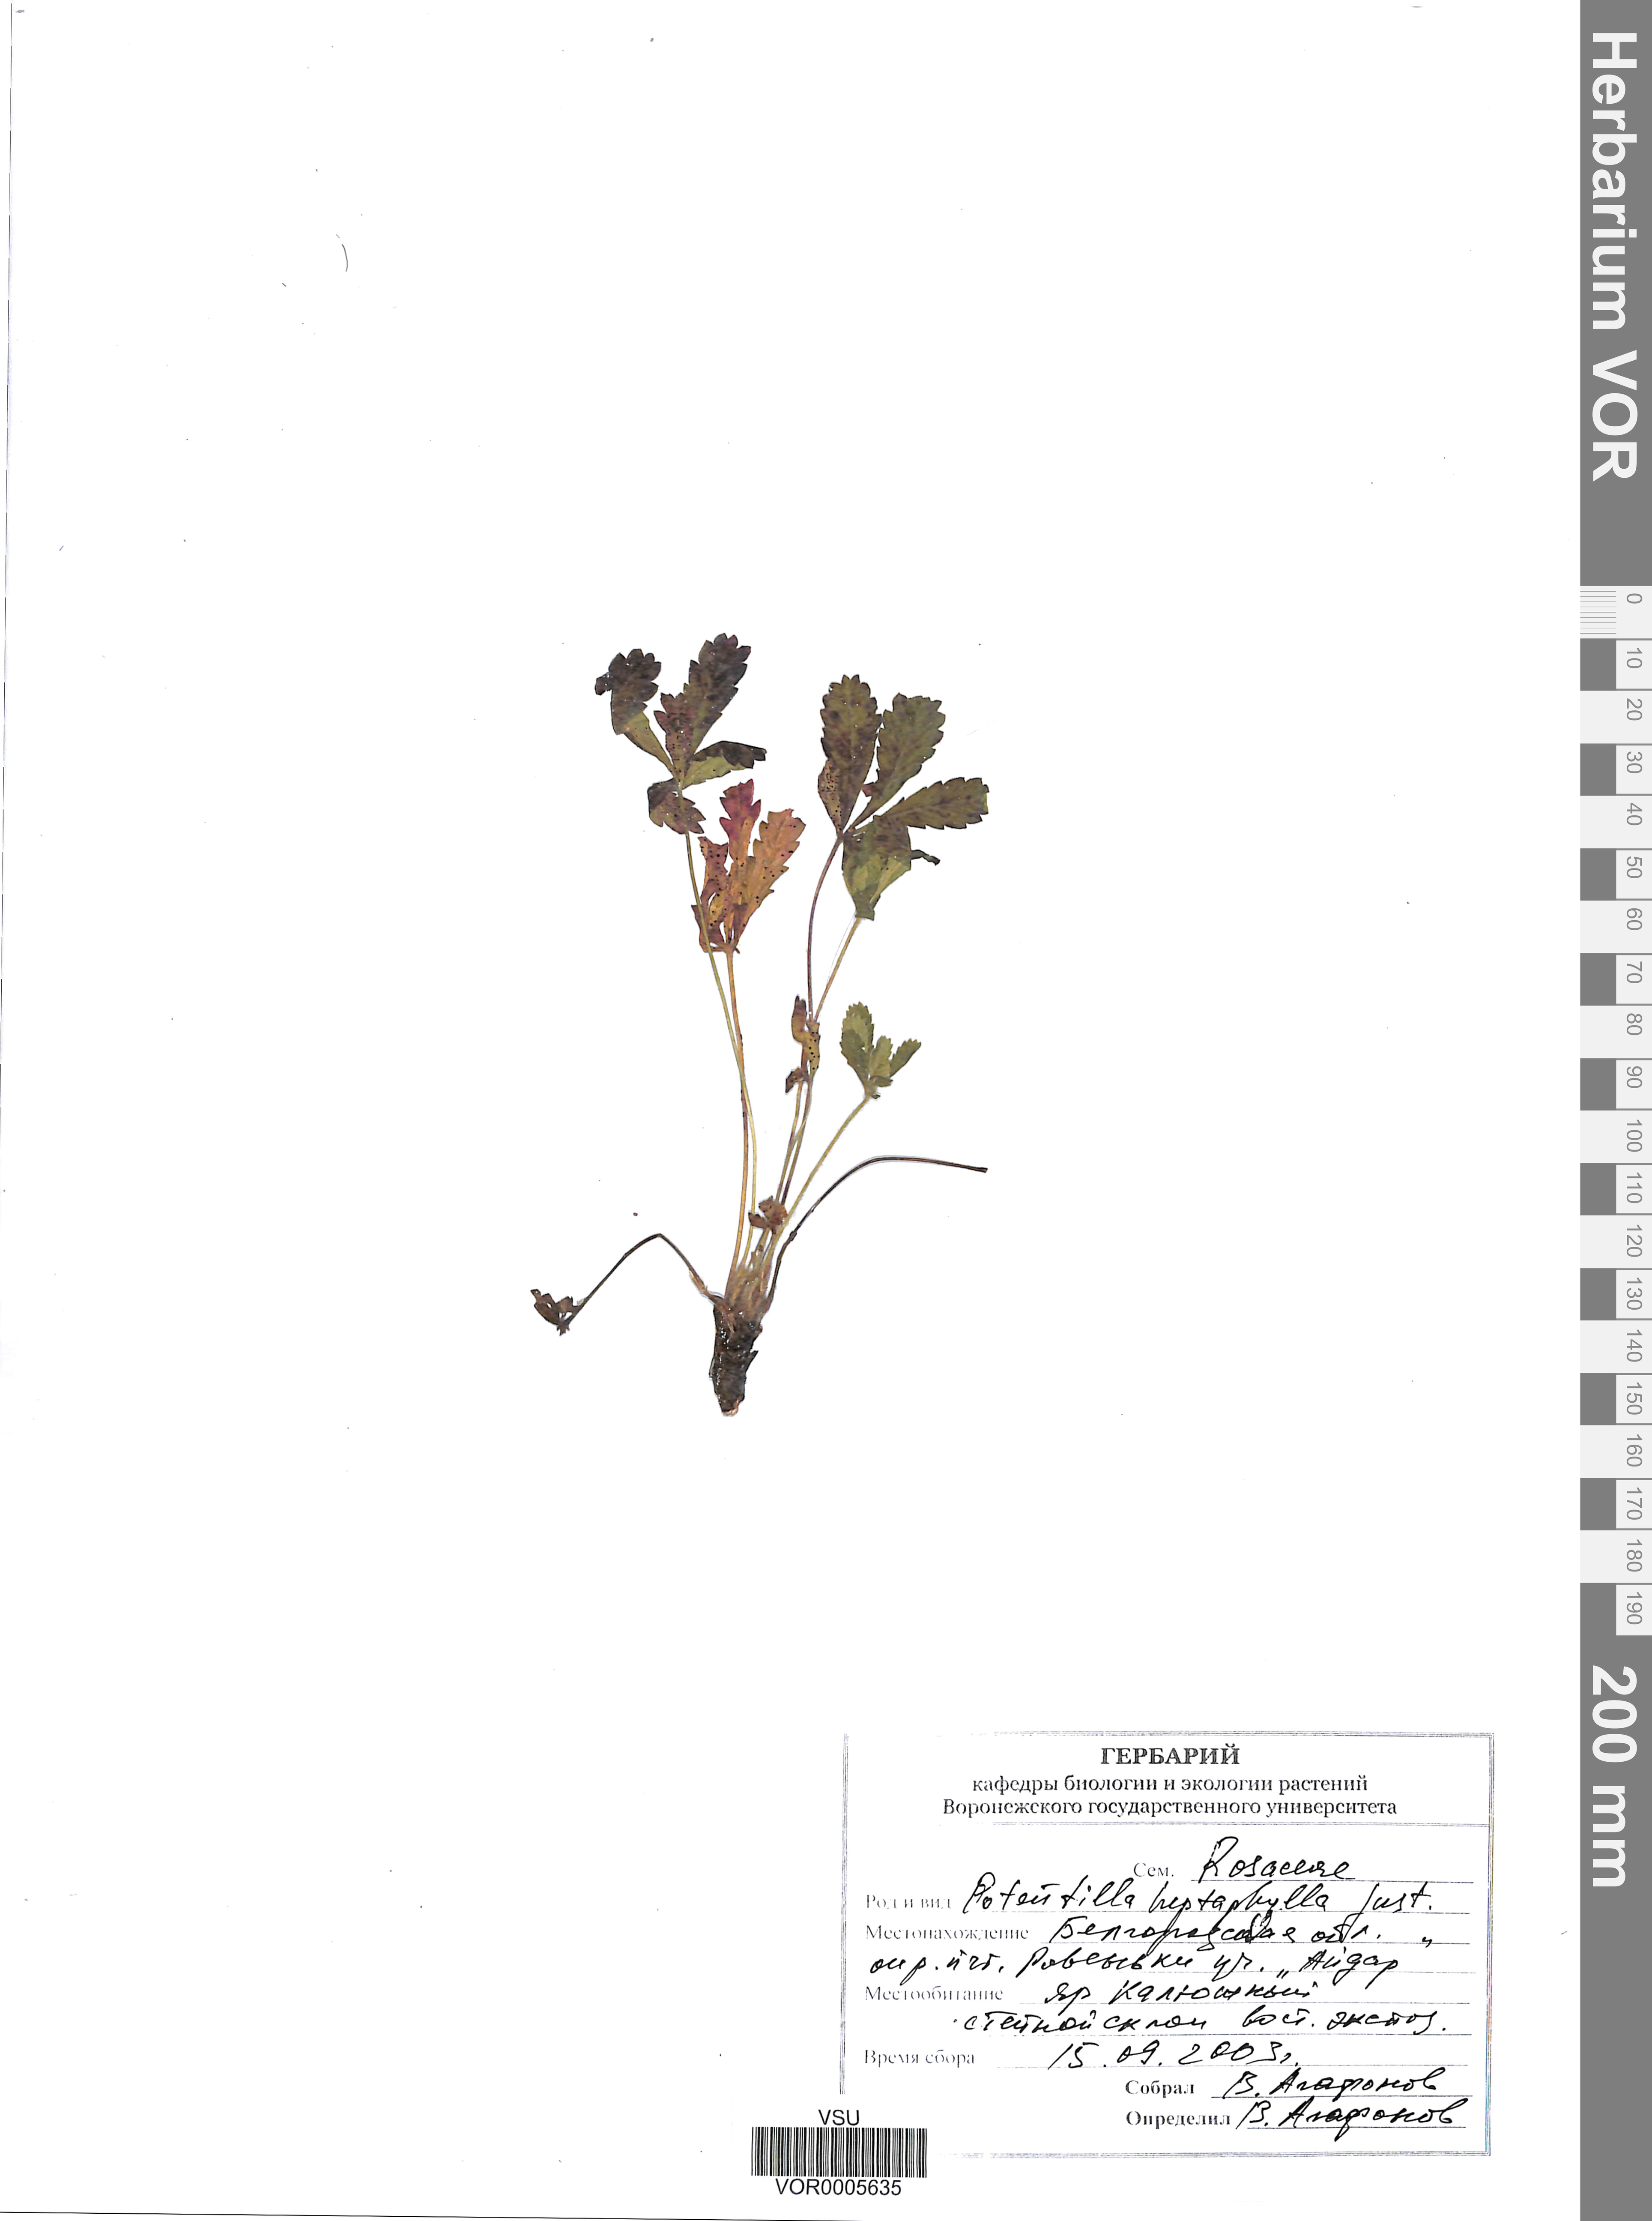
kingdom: Plantae
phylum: Tracheophyta
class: Magnoliopsida
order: Rosales
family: Rosaceae
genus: Potentilla
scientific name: Potentilla heptaphylla
